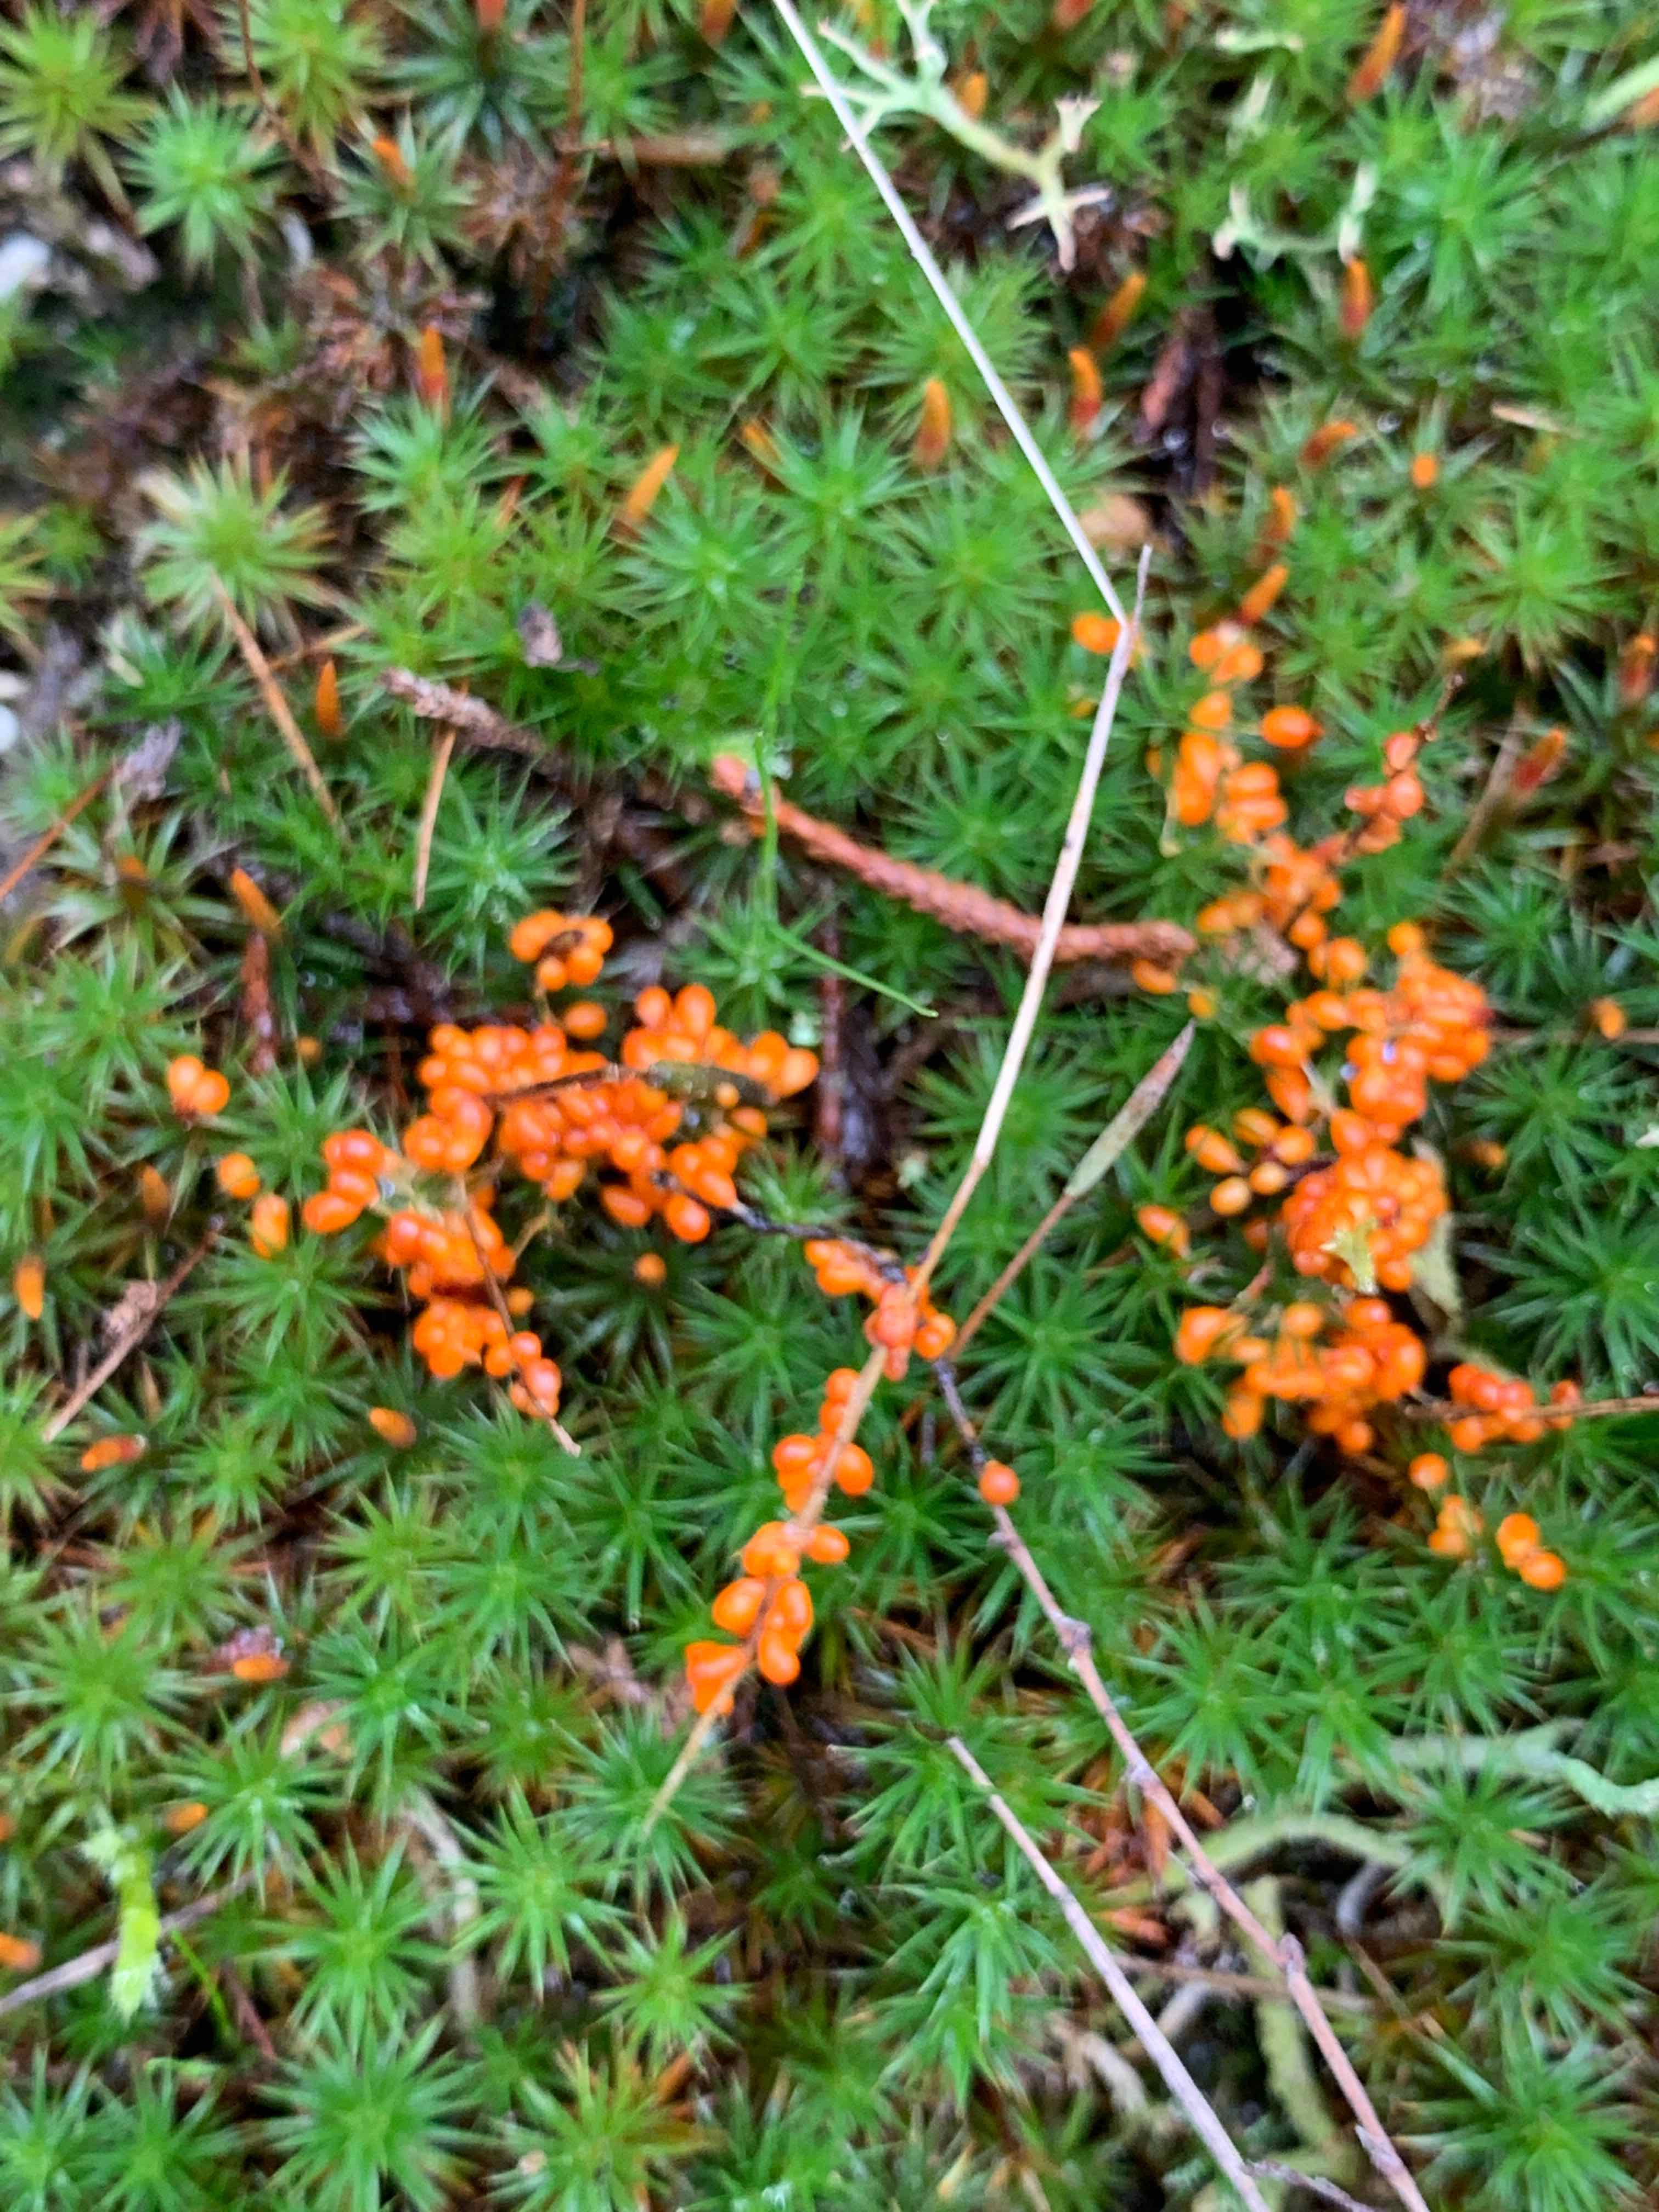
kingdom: Protozoa
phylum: Mycetozoa
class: Myxomycetes
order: Physarales
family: Physaraceae
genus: Leocarpus
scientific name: Leocarpus fragilis
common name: poleret glatfrø
